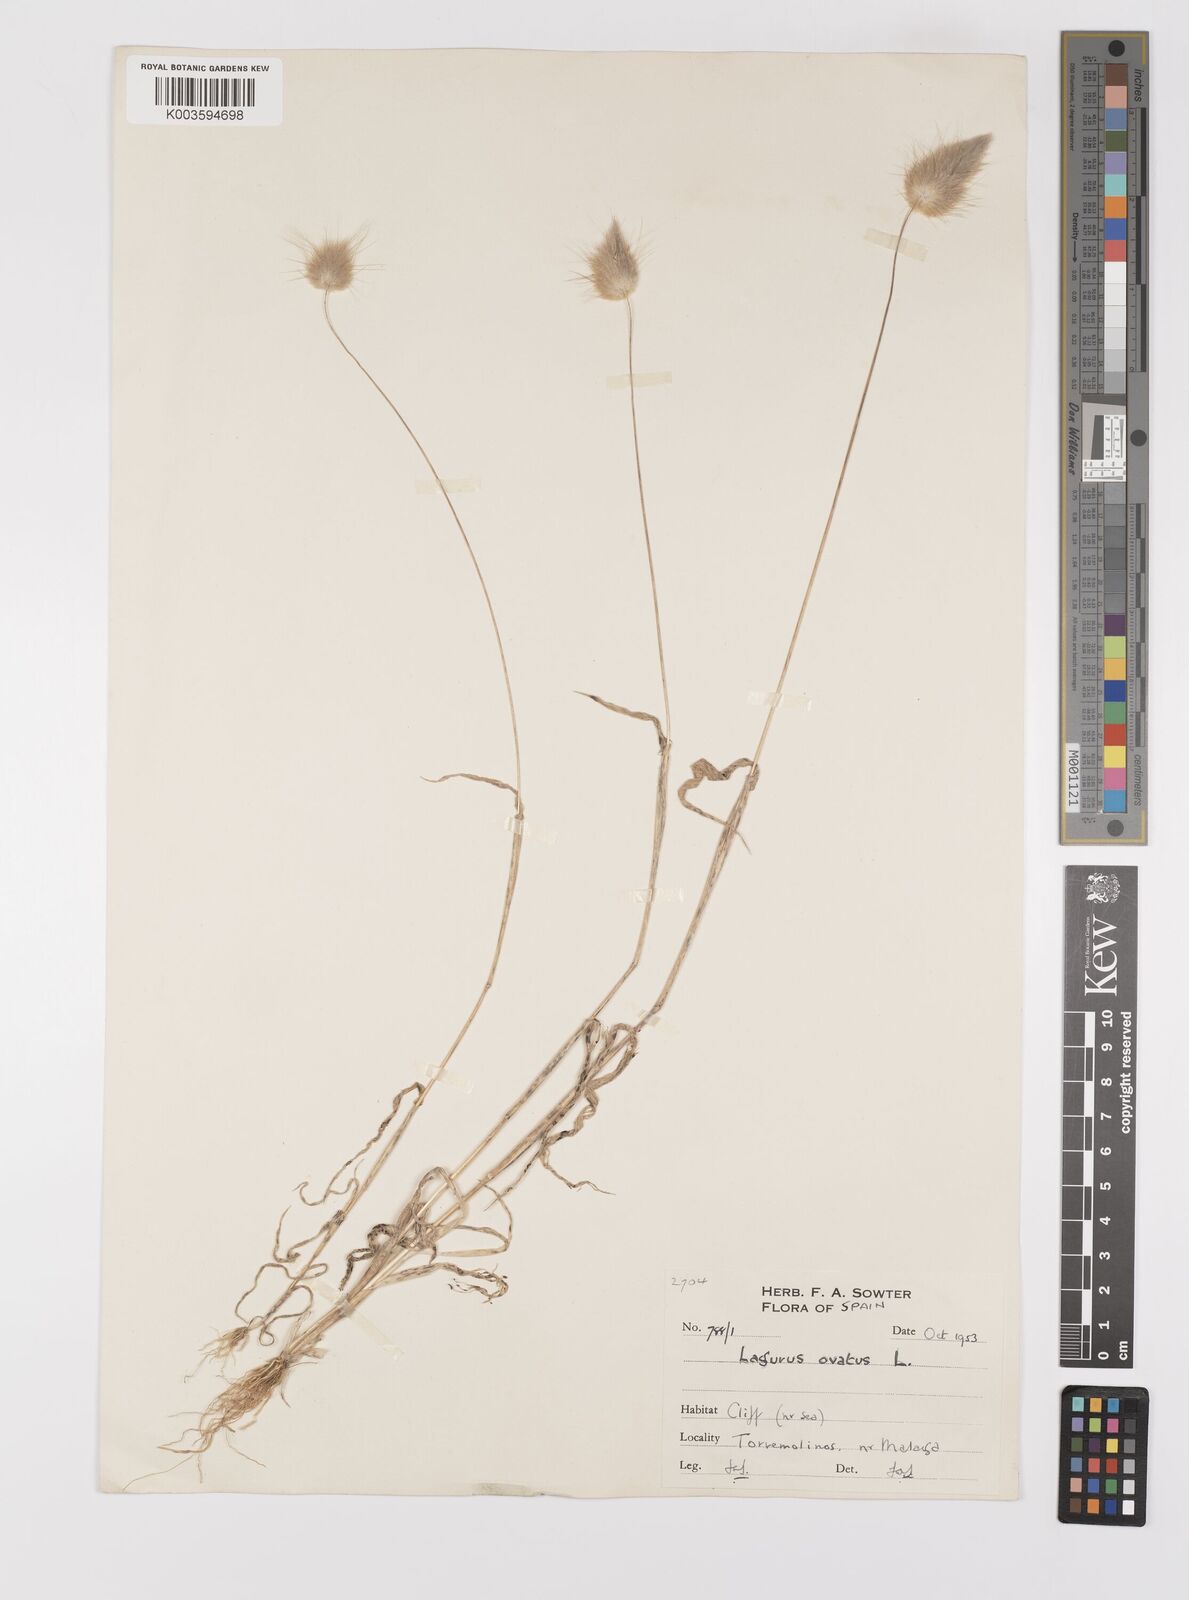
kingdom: Plantae
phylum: Tracheophyta
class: Liliopsida
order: Poales
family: Poaceae
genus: Lagurus
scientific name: Lagurus ovatus
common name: Hare's-tail
